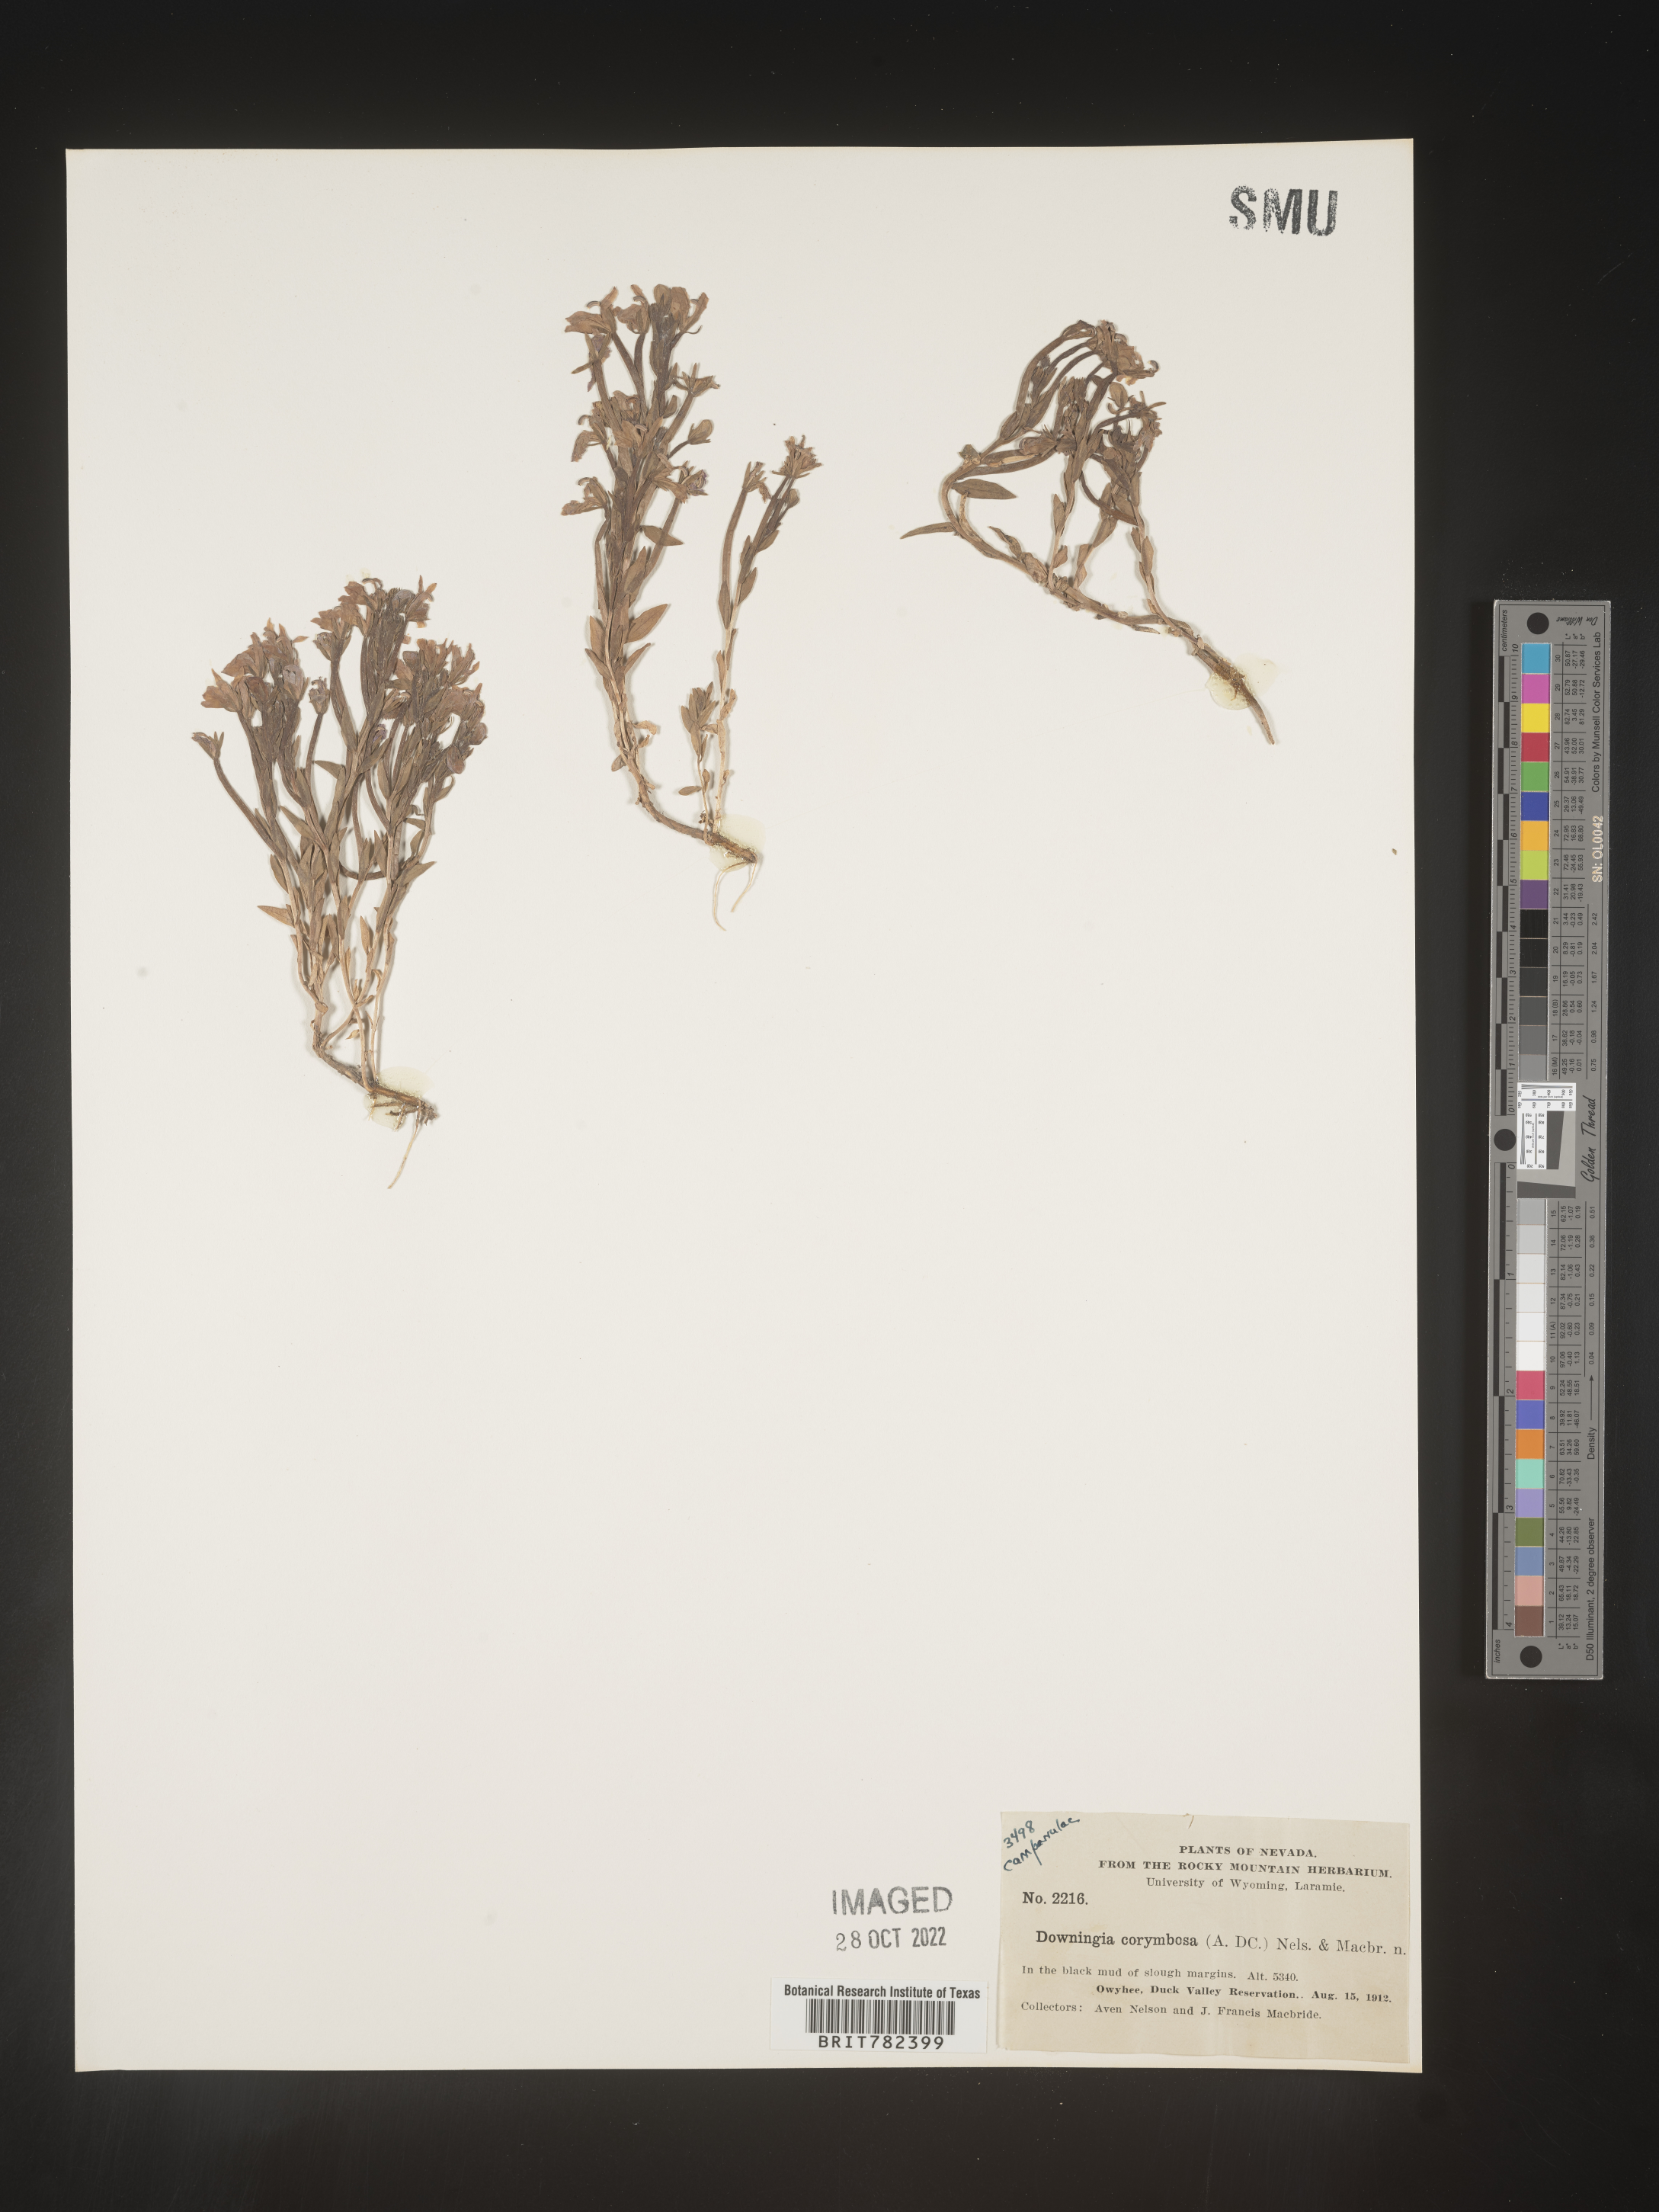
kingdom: Plantae
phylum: Tracheophyta
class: Magnoliopsida
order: Asterales
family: Campanulaceae
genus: Downingia
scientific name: Downingia
